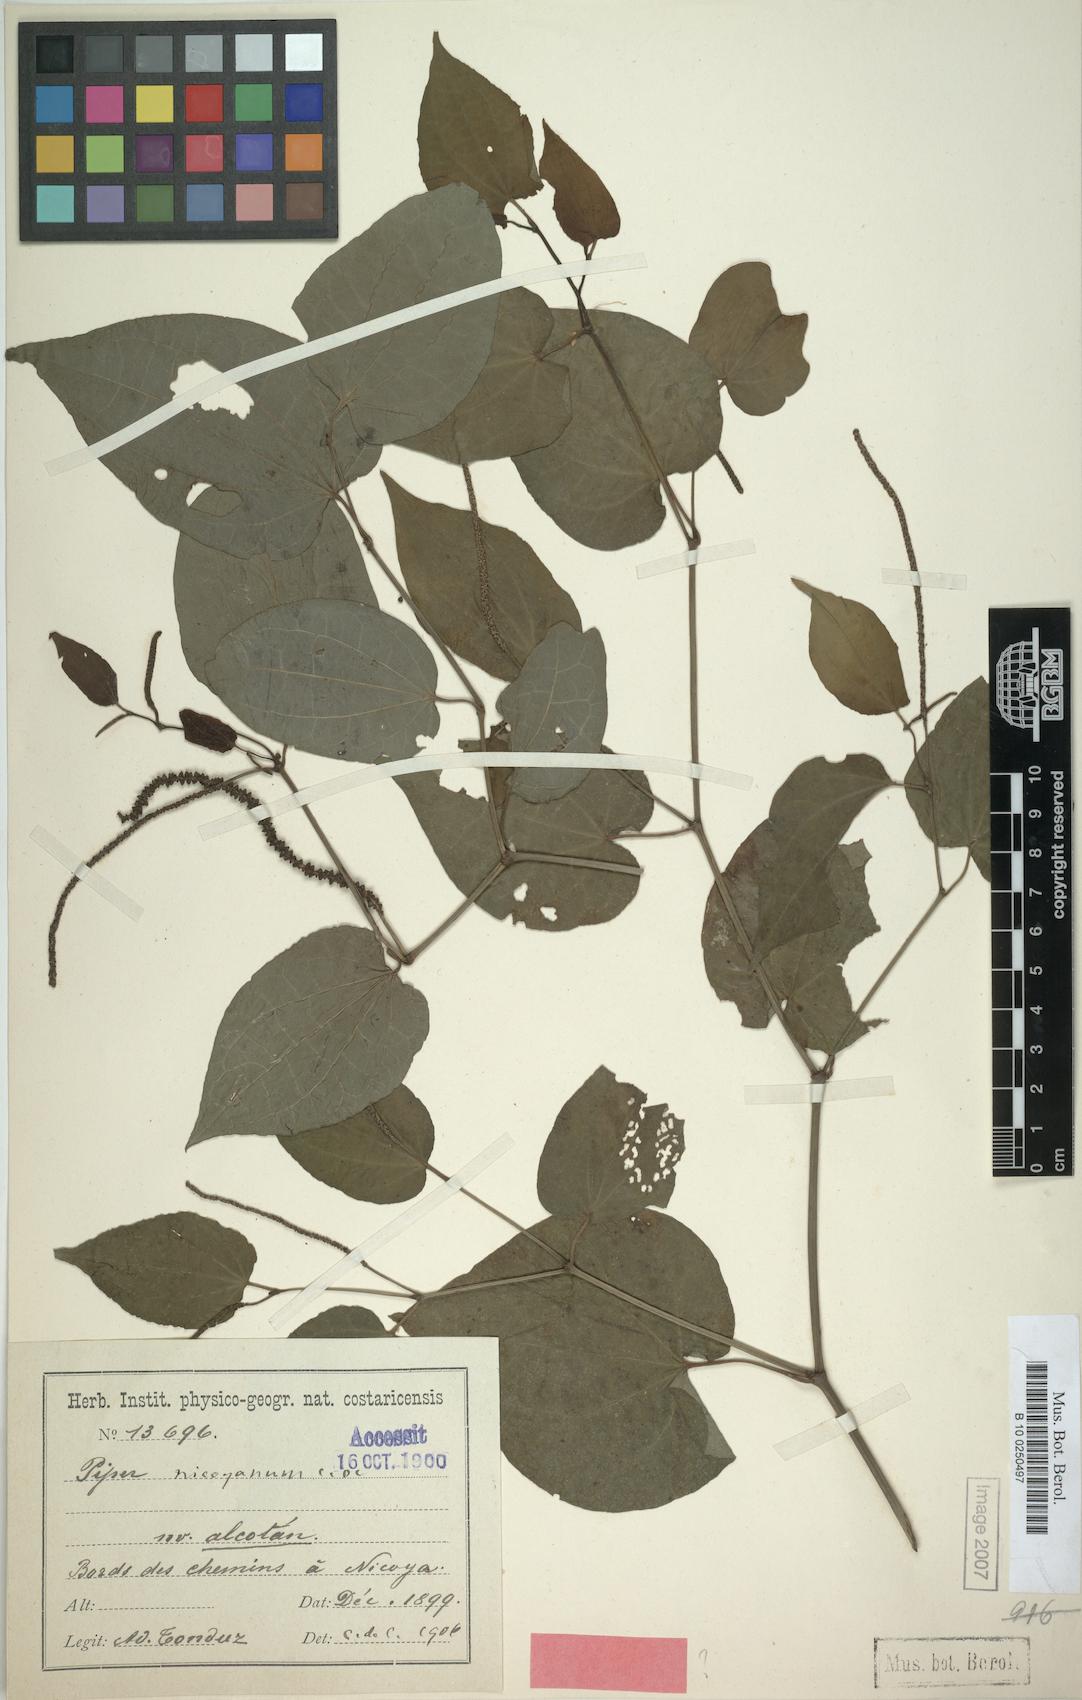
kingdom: Plantae
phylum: Tracheophyta
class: Magnoliopsida
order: Piperales
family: Piperaceae
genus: Piper
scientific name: Piper nicoyanum
